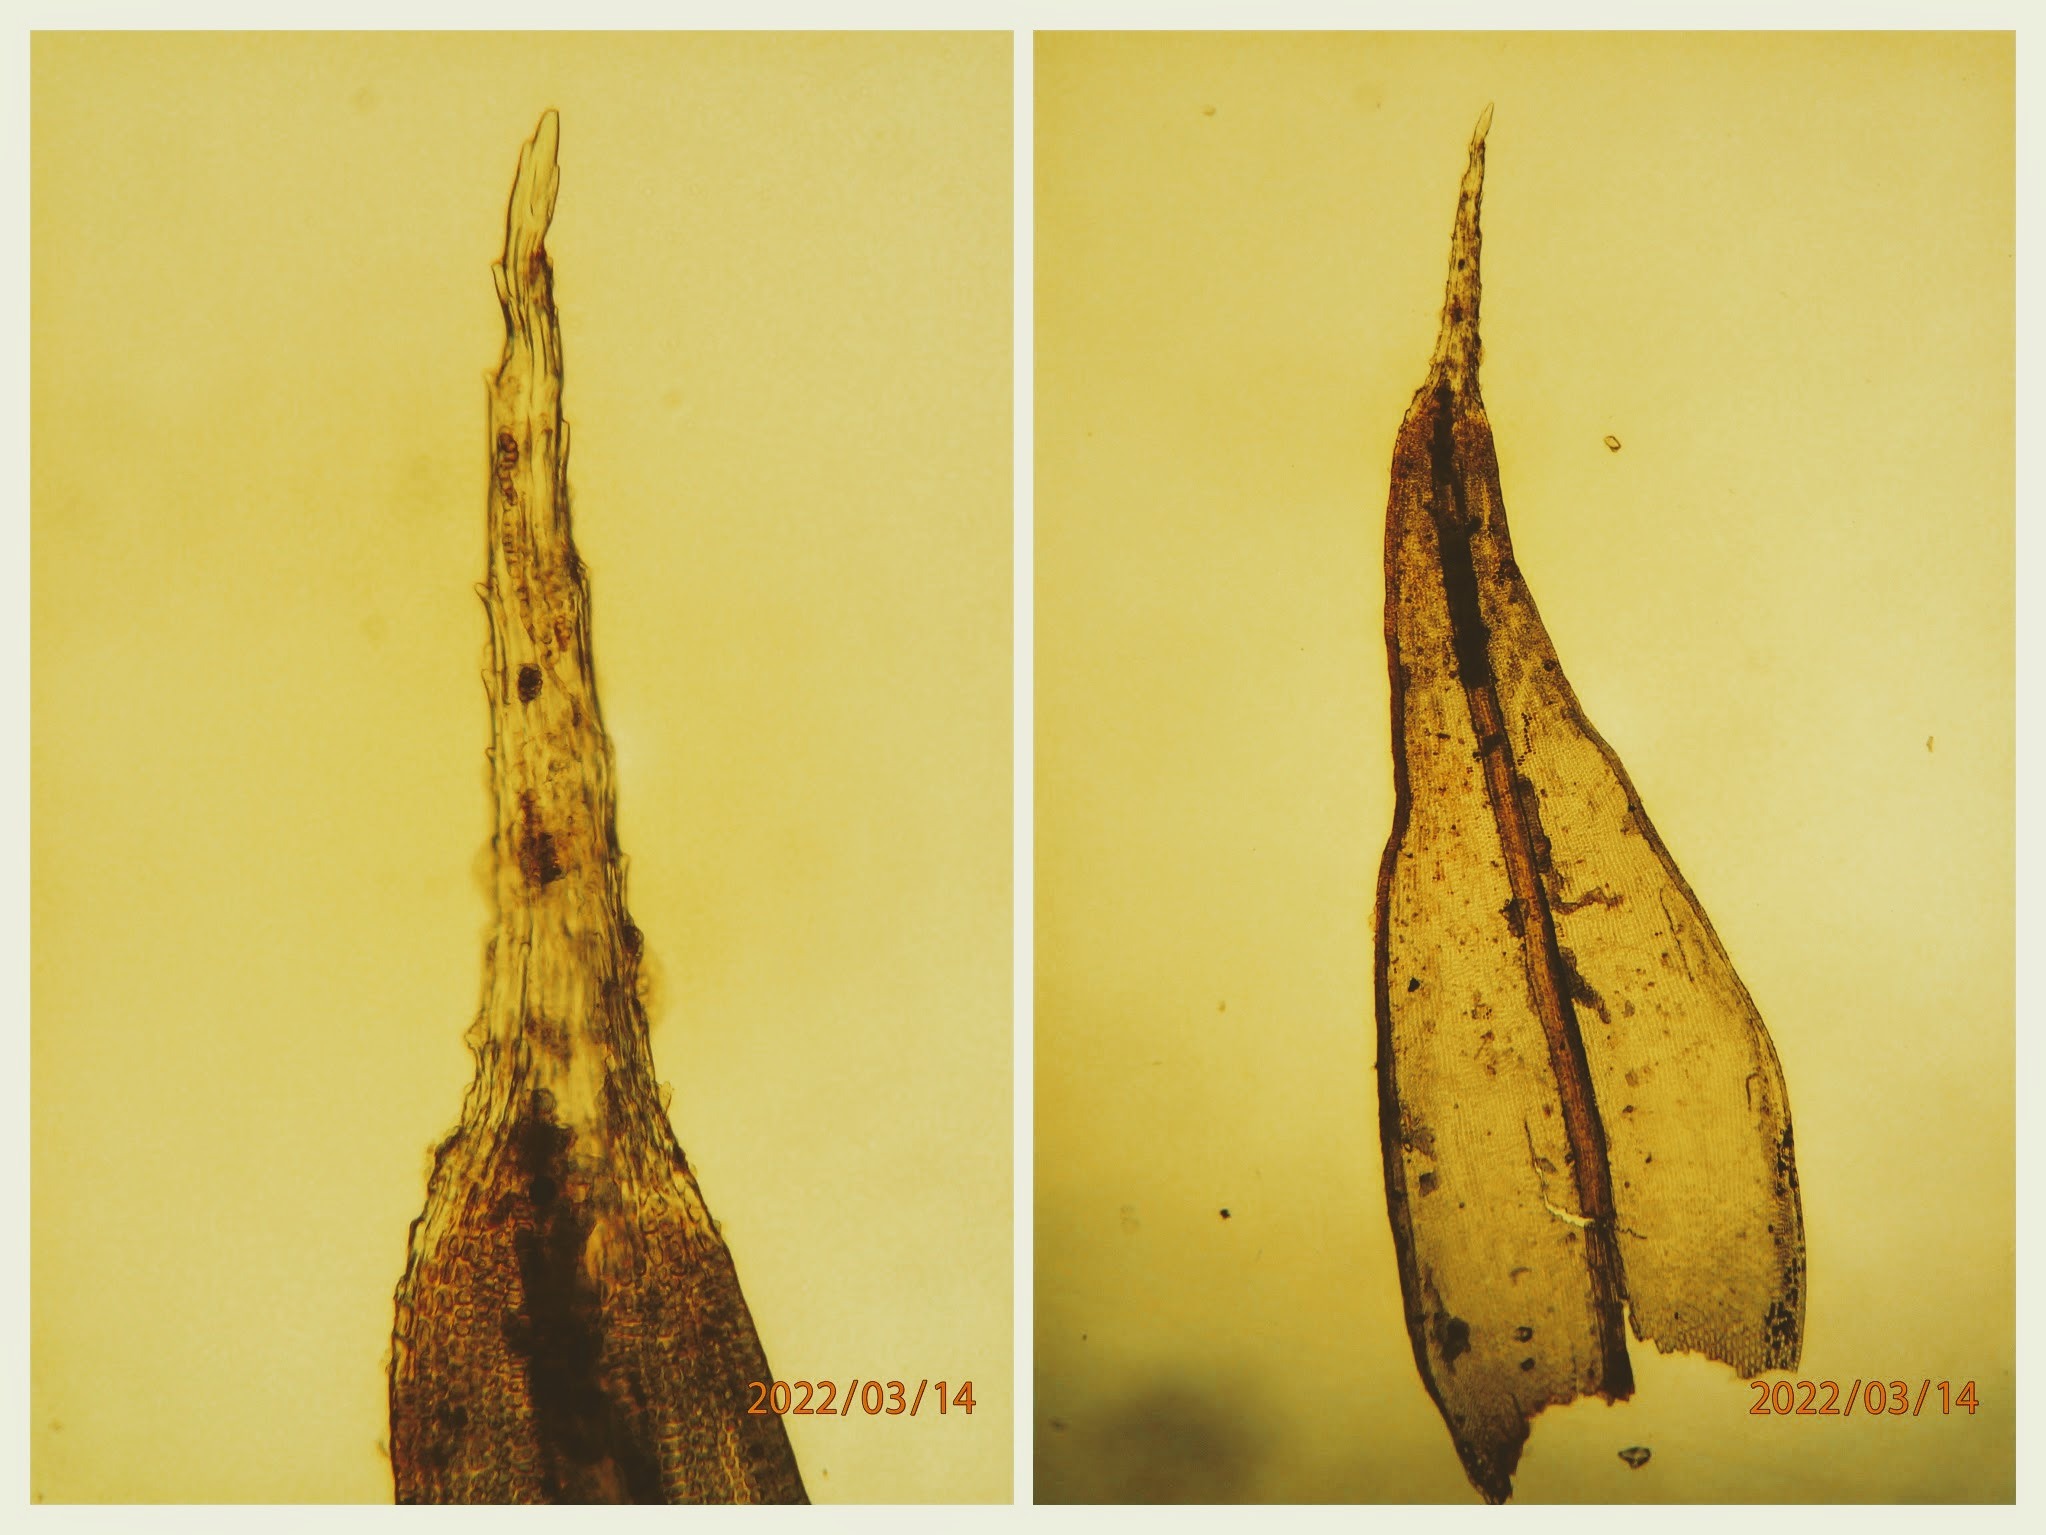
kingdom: Plantae
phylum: Bryophyta
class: Bryopsida
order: Grimmiales
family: Grimmiaceae
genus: Schistidium
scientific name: Schistidium apocarpum
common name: Grå strålekransmos
